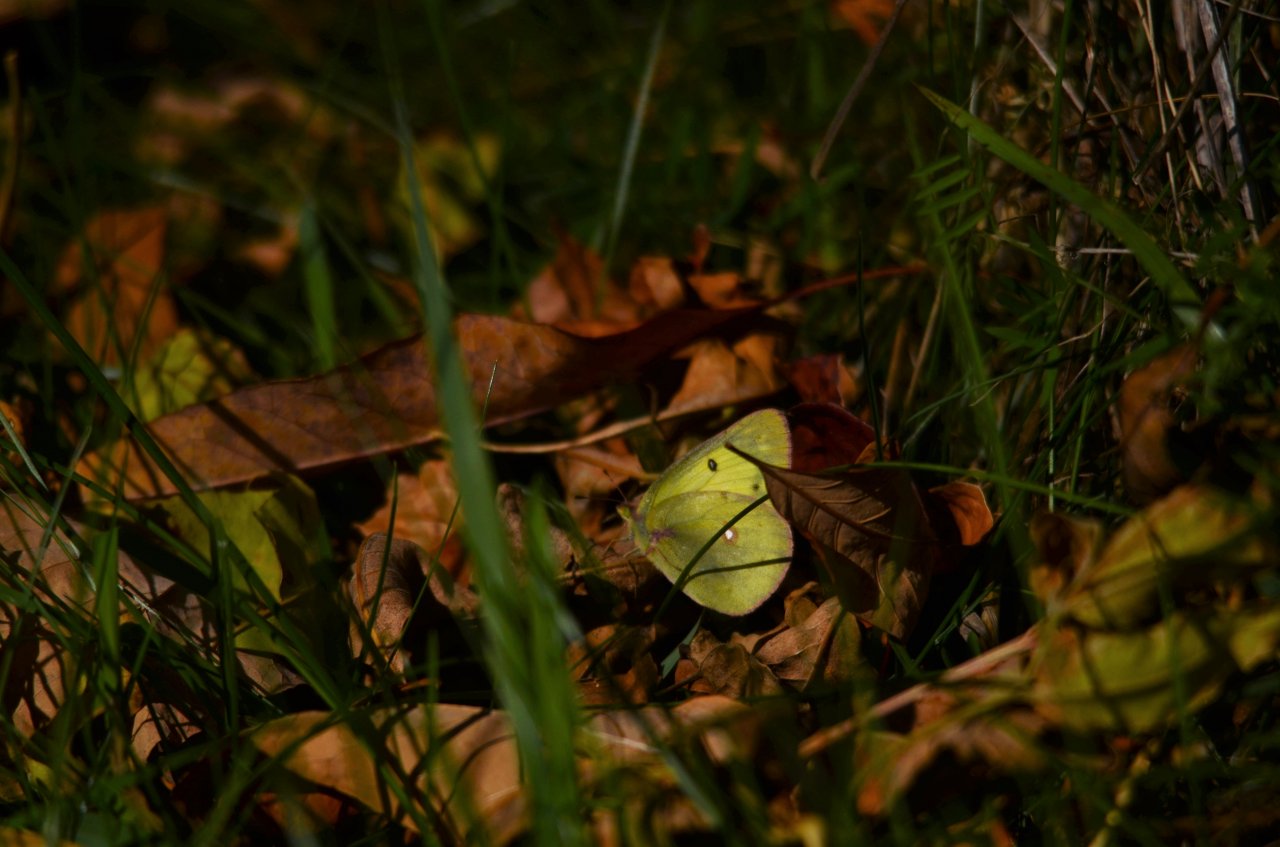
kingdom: Animalia
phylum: Arthropoda
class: Insecta
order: Lepidoptera
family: Pieridae
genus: Colias
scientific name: Colias philodice
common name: Clouded Sulphur
